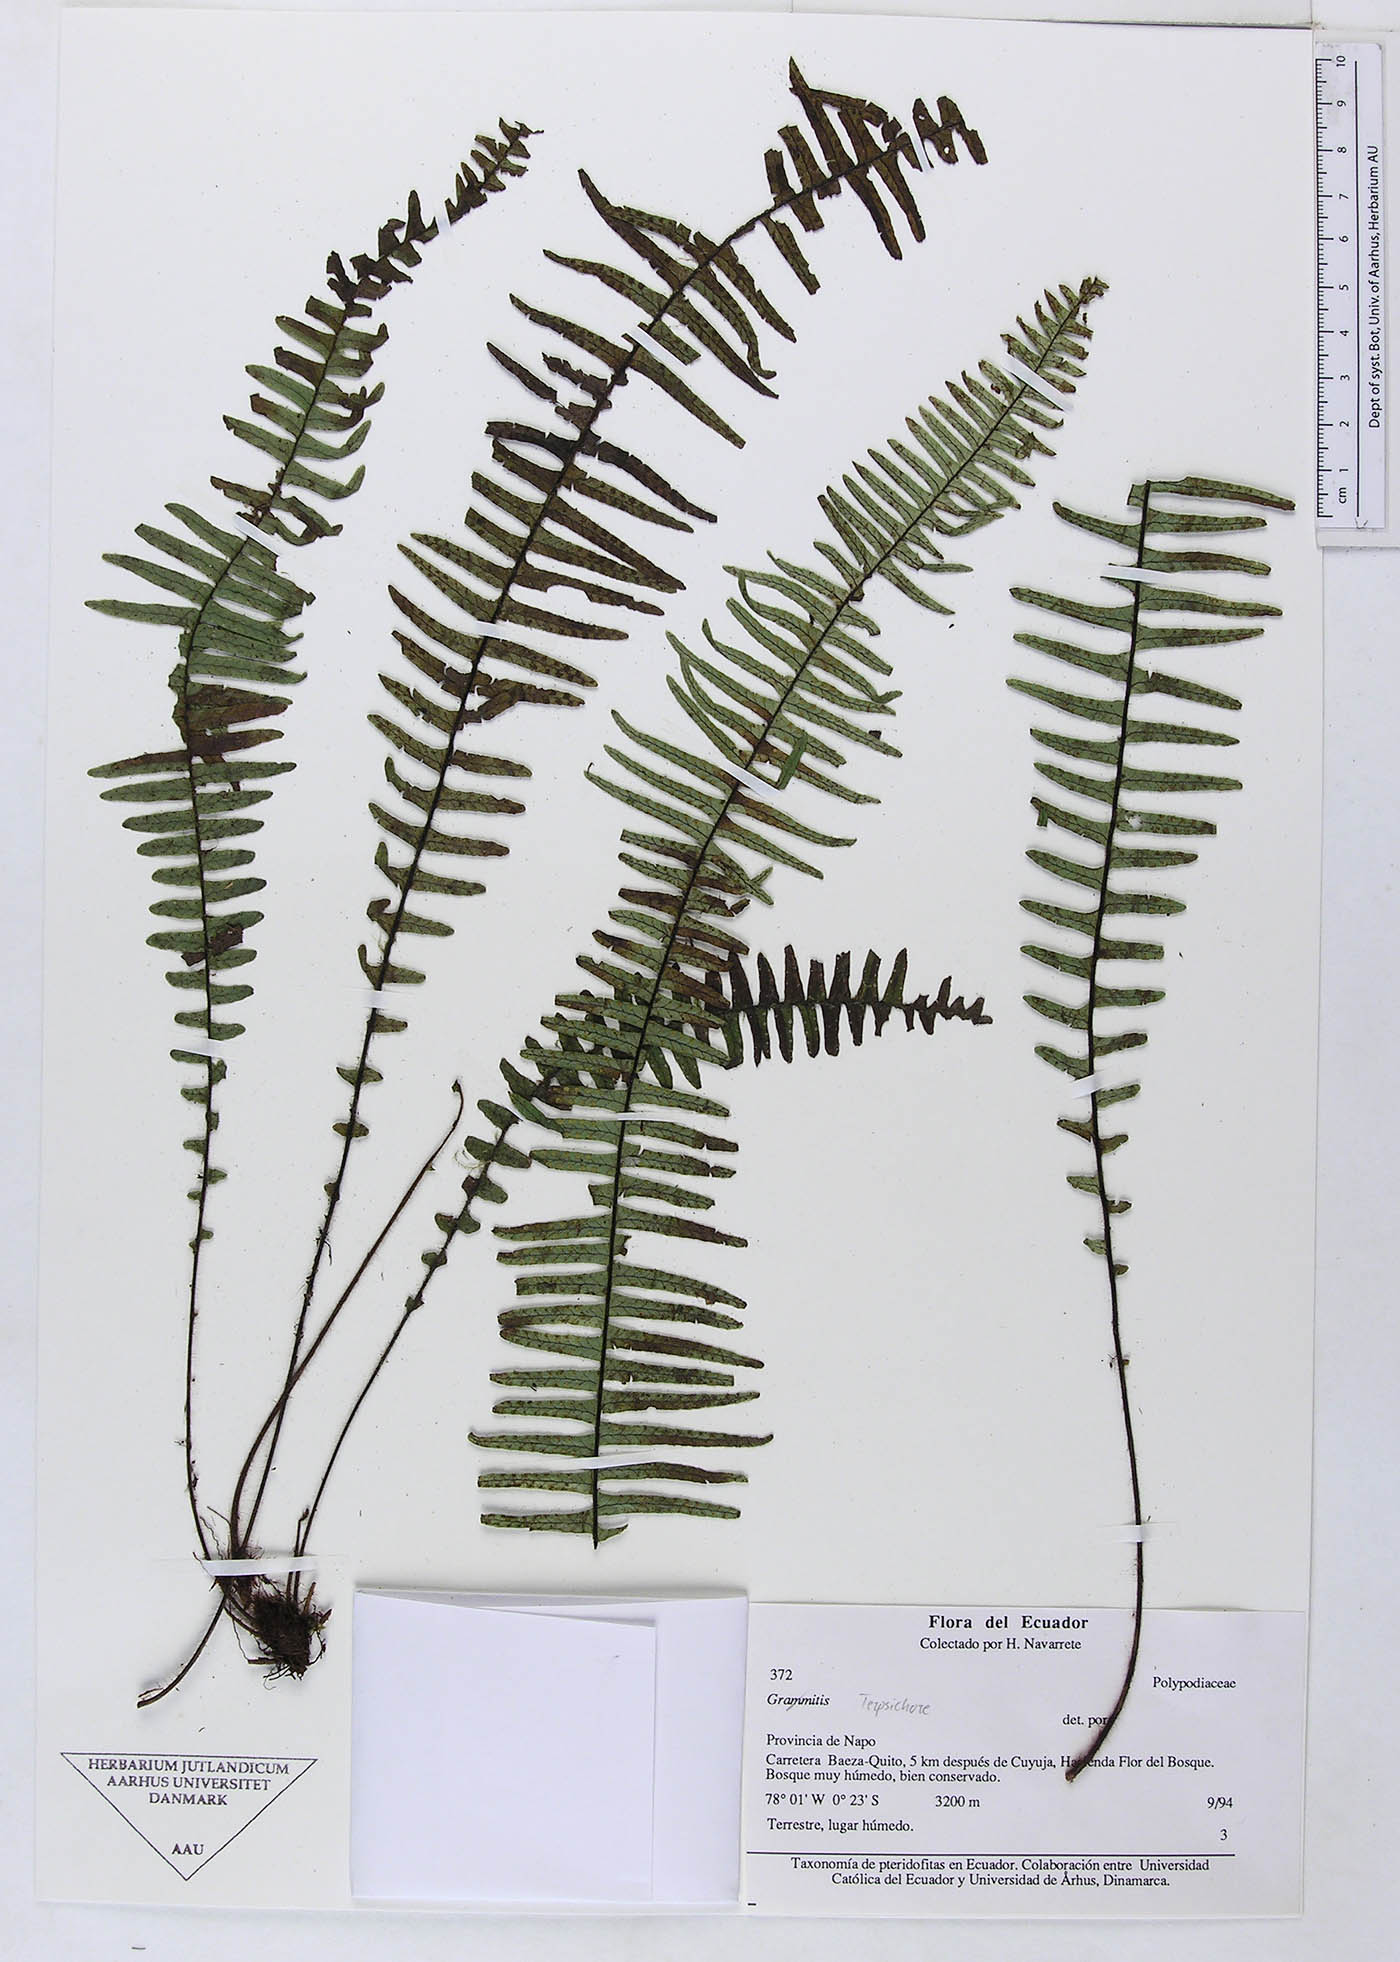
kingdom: Plantae
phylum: Tracheophyta
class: Polypodiopsida
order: Polypodiales
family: Polypodiaceae
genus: Grammitis
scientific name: Grammitis
